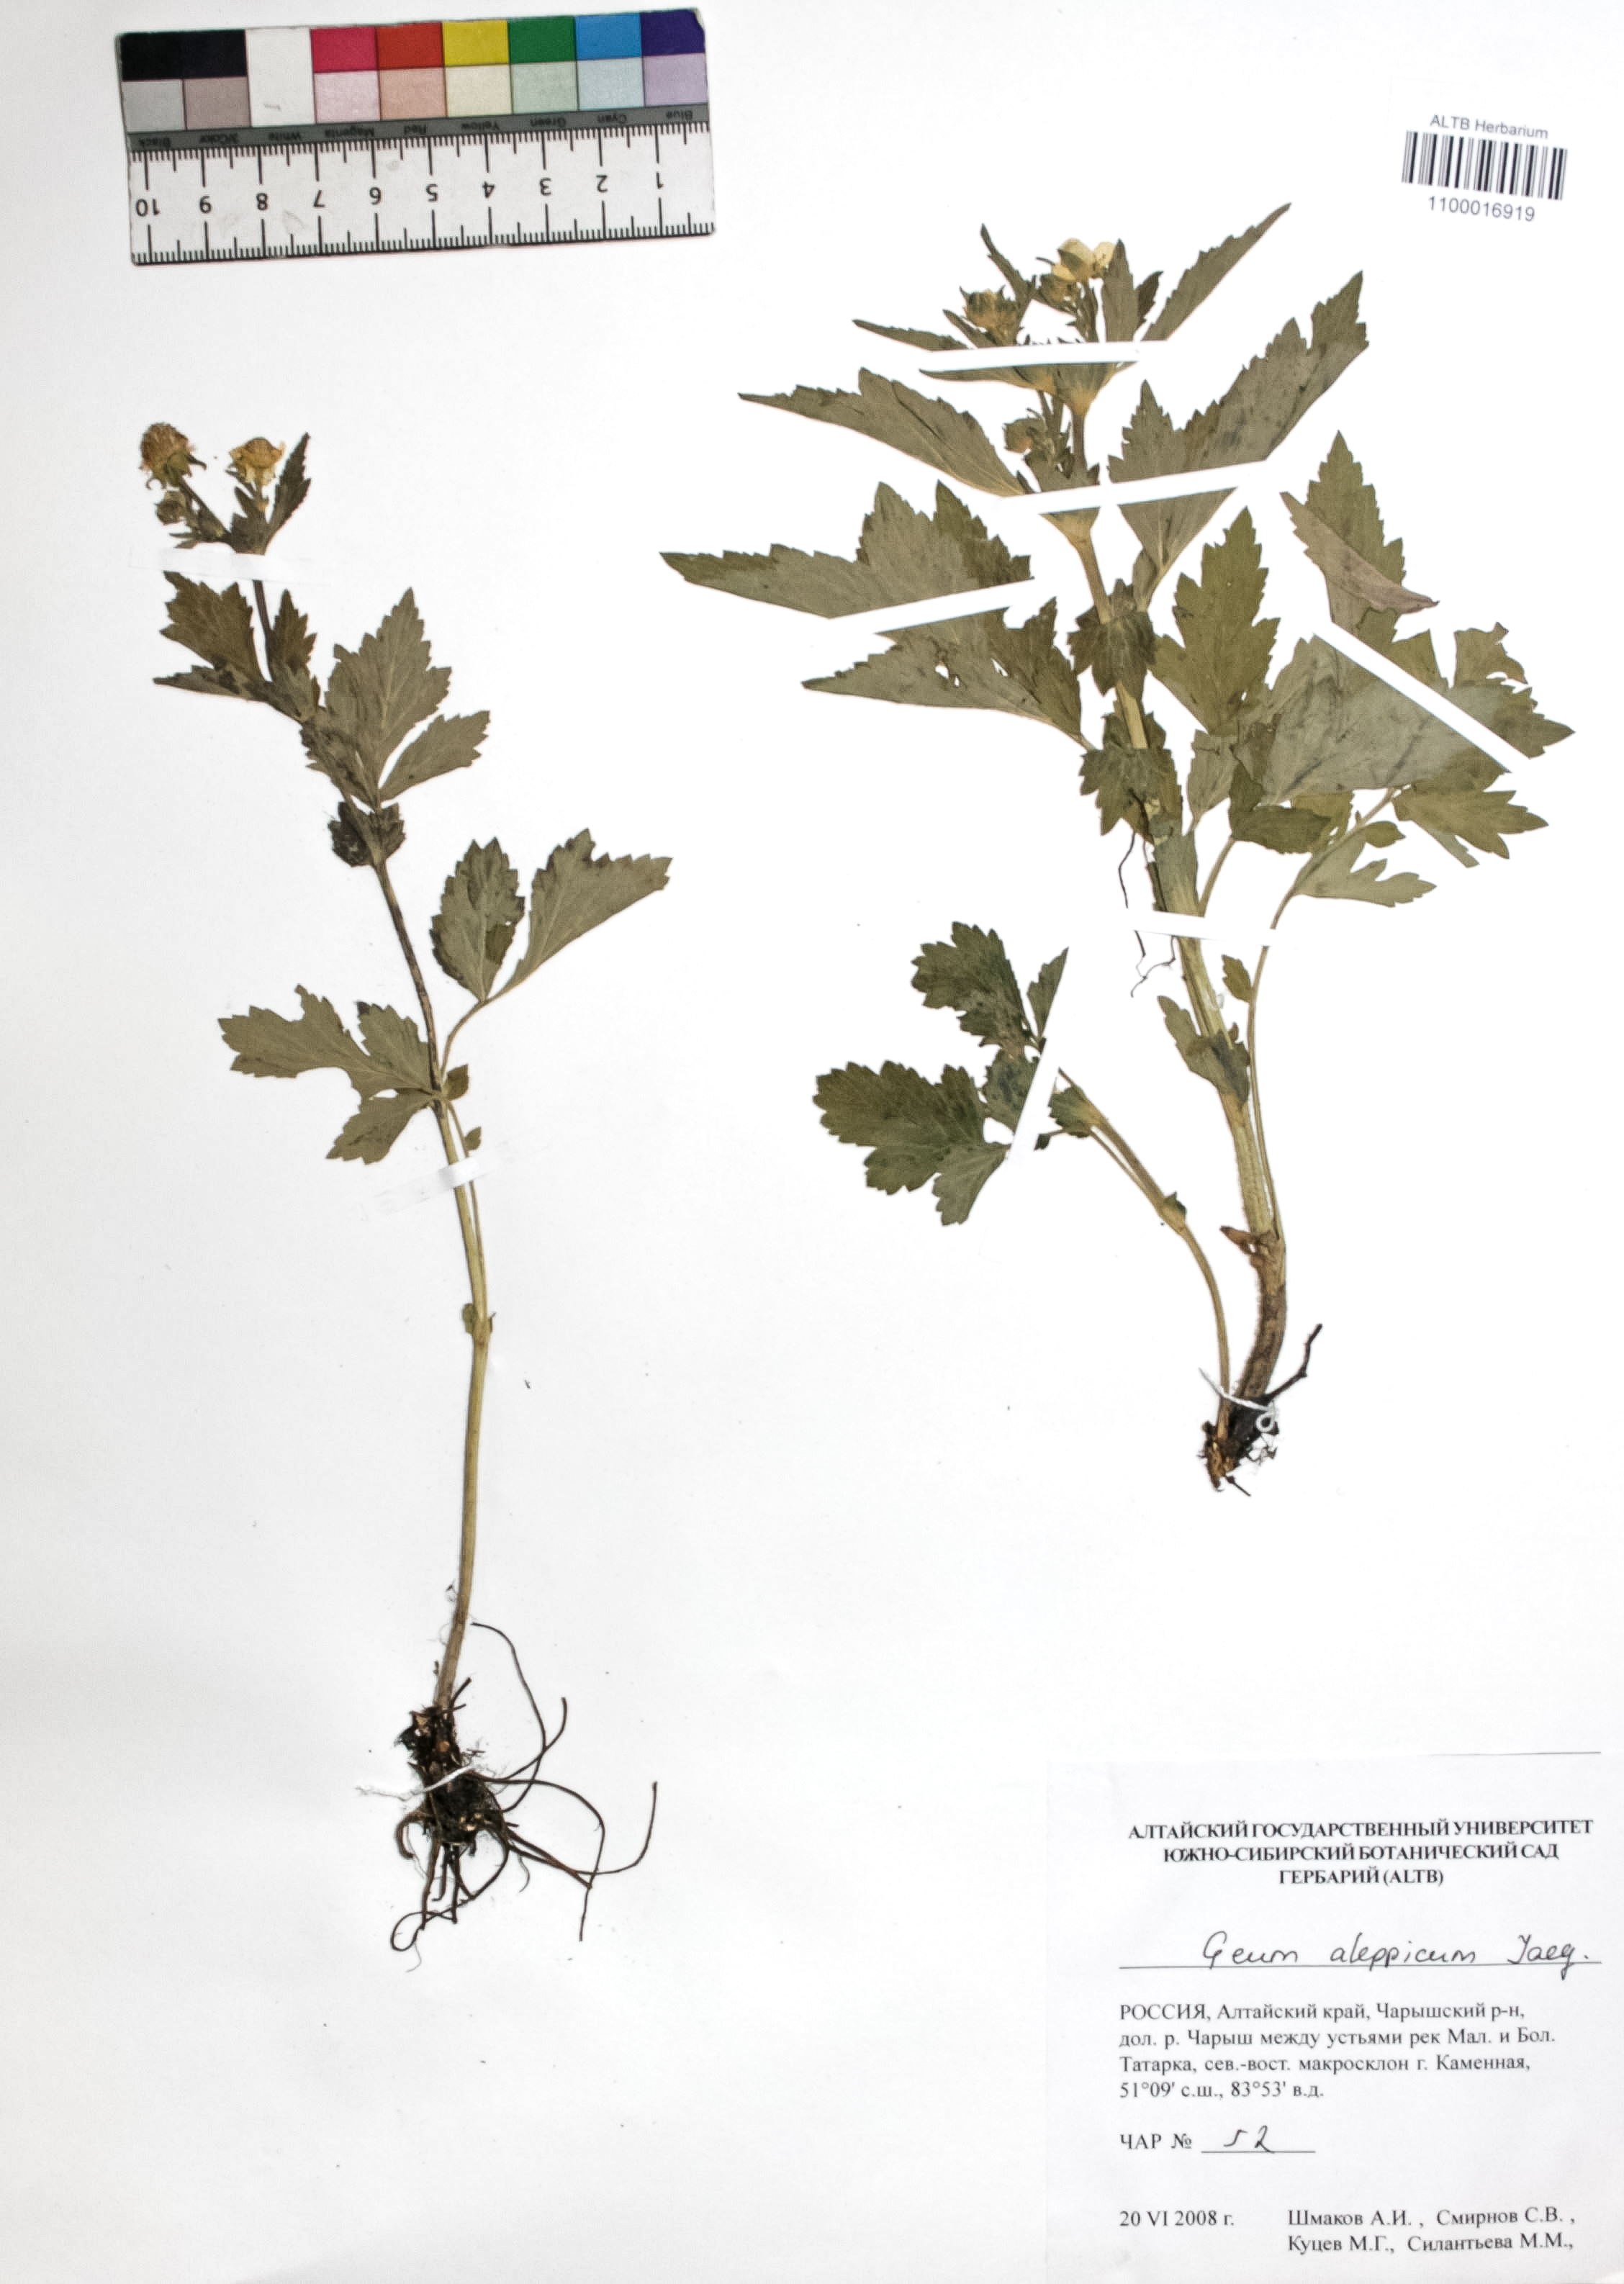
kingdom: Plantae
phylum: Tracheophyta
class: Magnoliopsida
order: Rosales
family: Rosaceae
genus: Geum
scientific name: Geum aleppicum
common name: Yellow avens
